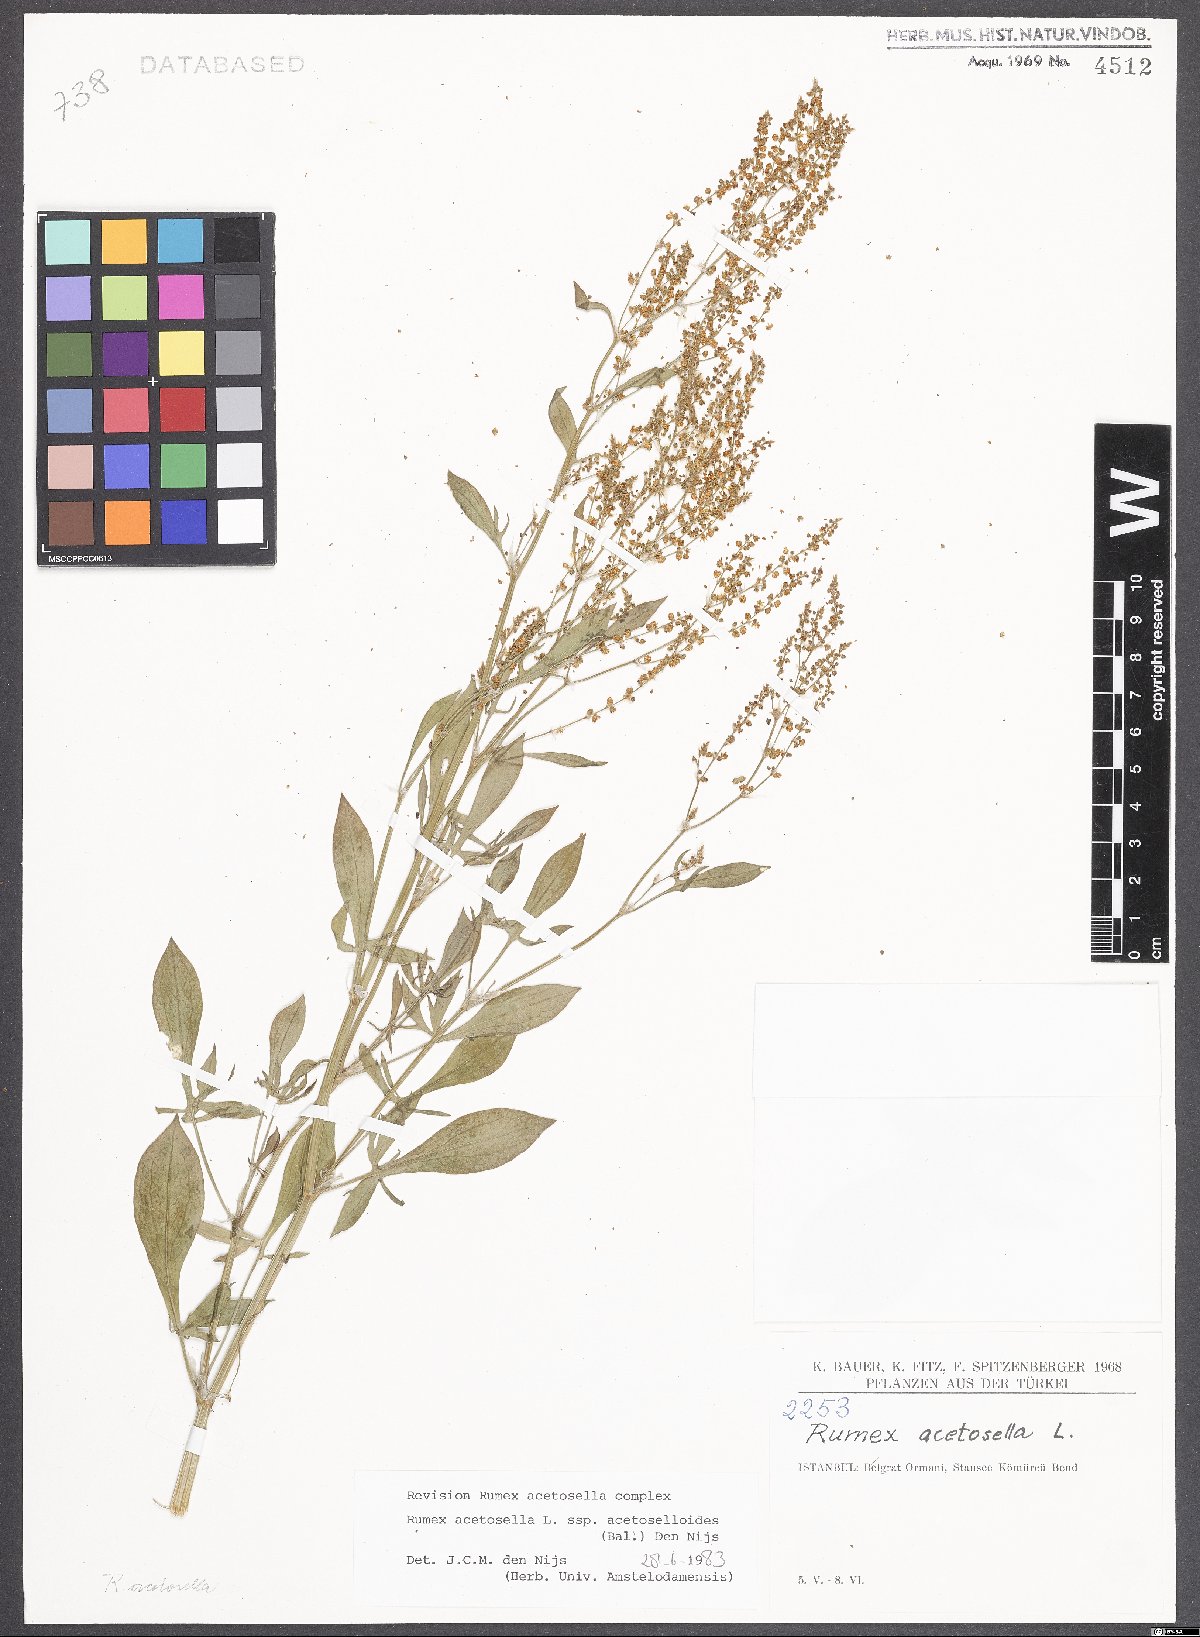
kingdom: Plantae
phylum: Tracheophyta
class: Magnoliopsida
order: Caryophyllales
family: Polygonaceae
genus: Rumex
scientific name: Rumex acetosella
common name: Common sheep sorrel
